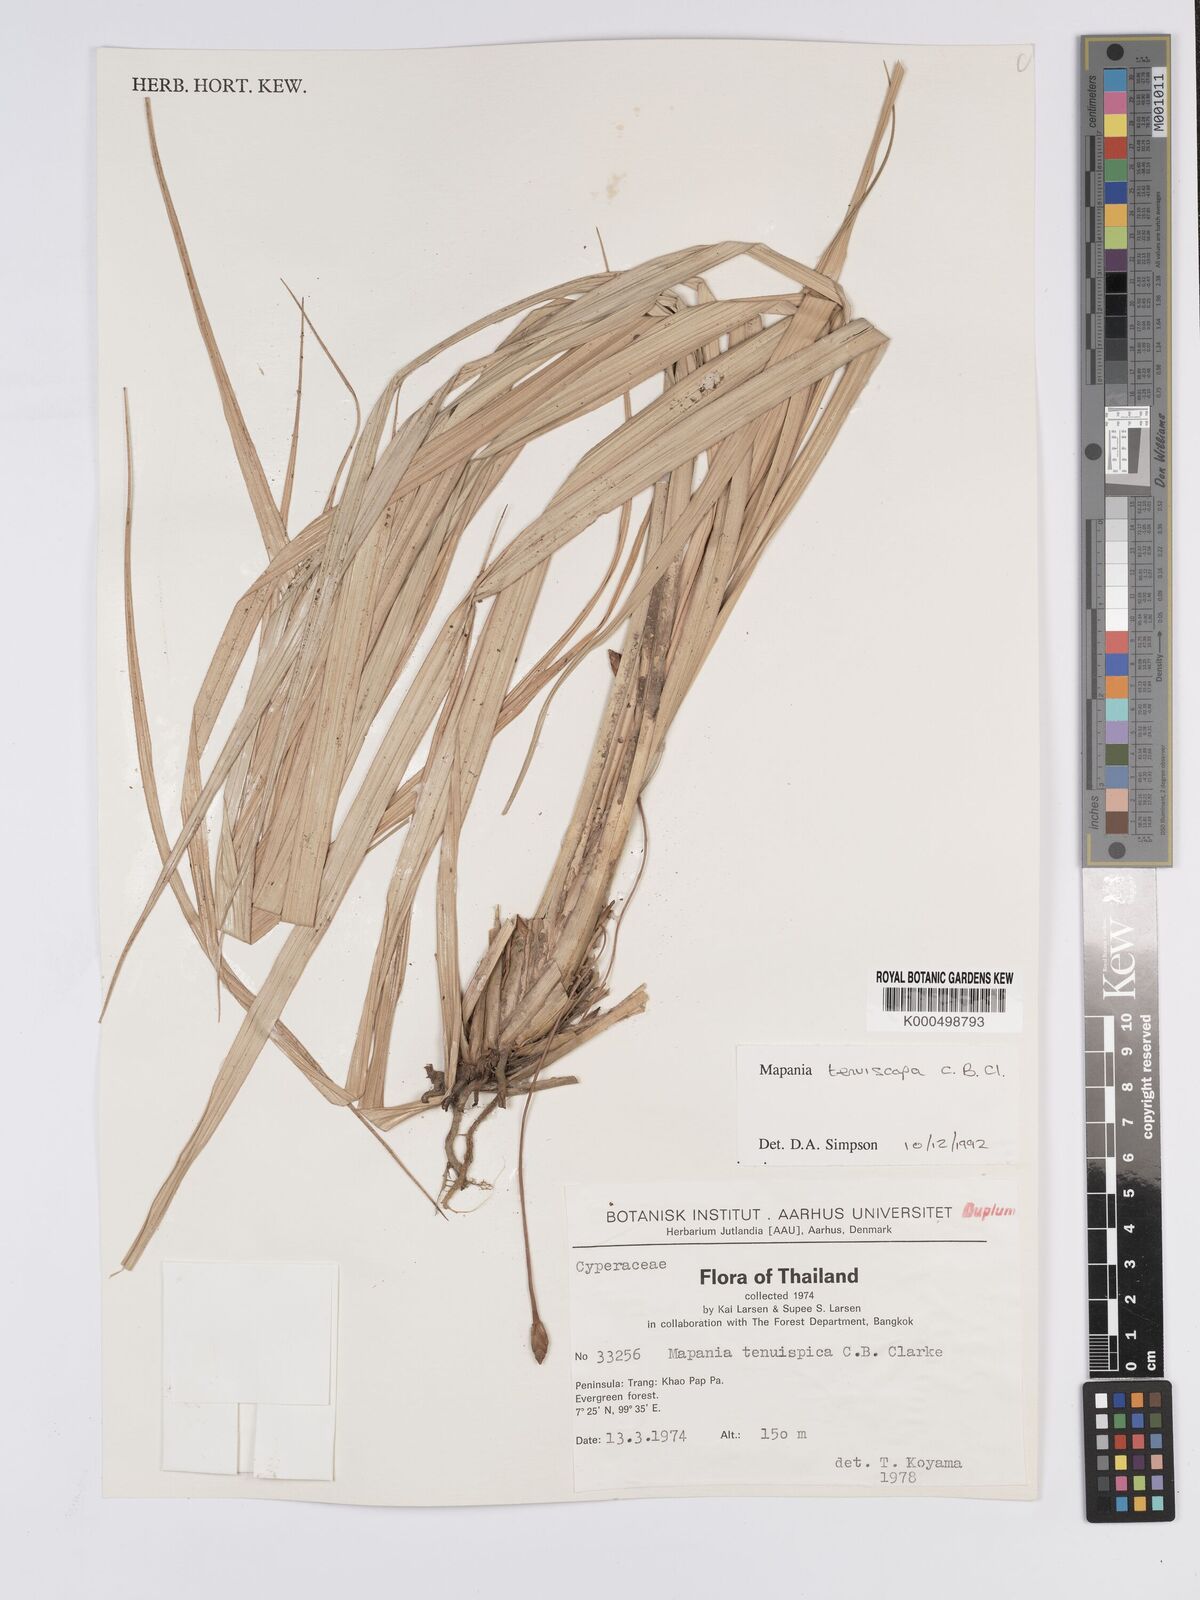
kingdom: Plantae
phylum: Tracheophyta
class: Liliopsida
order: Poales
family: Cyperaceae
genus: Mapania
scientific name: Mapania tenuiscapa
